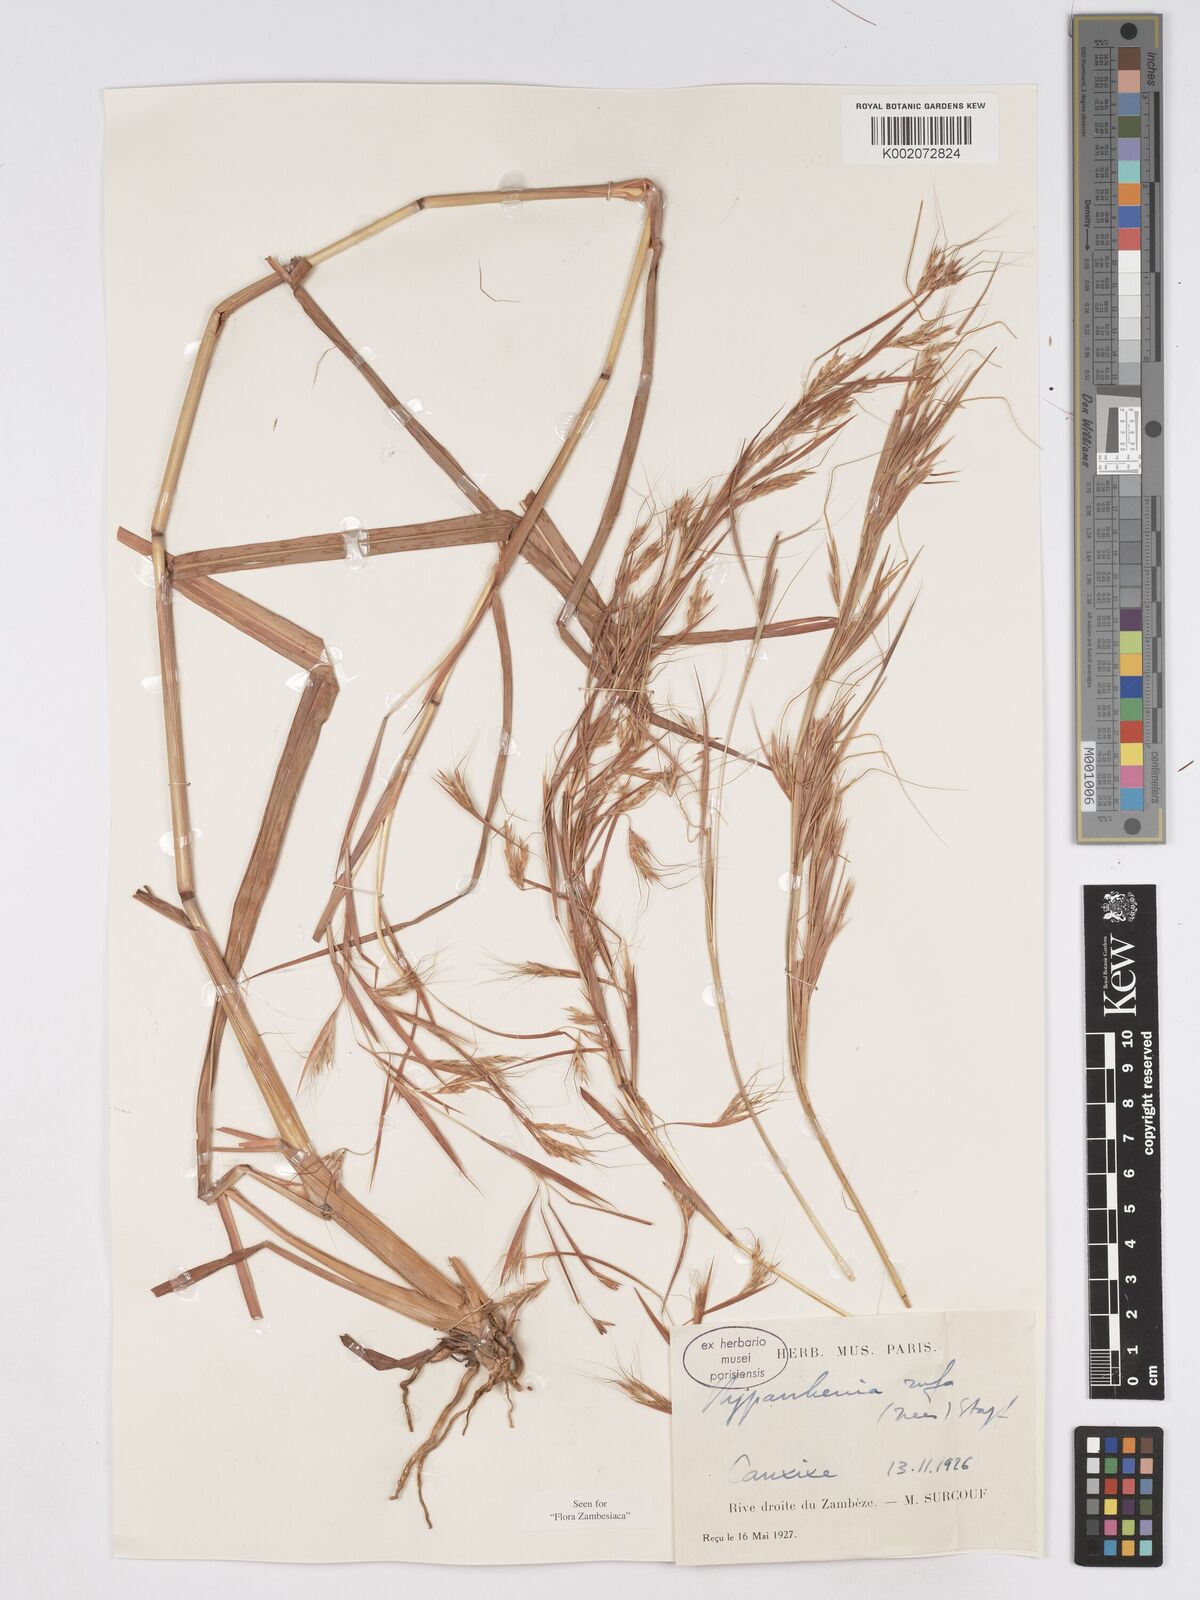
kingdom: Plantae
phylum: Tracheophyta
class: Liliopsida
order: Poales
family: Poaceae
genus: Hyparrhenia
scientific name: Hyparrhenia rufa
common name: Jaraguagrass
